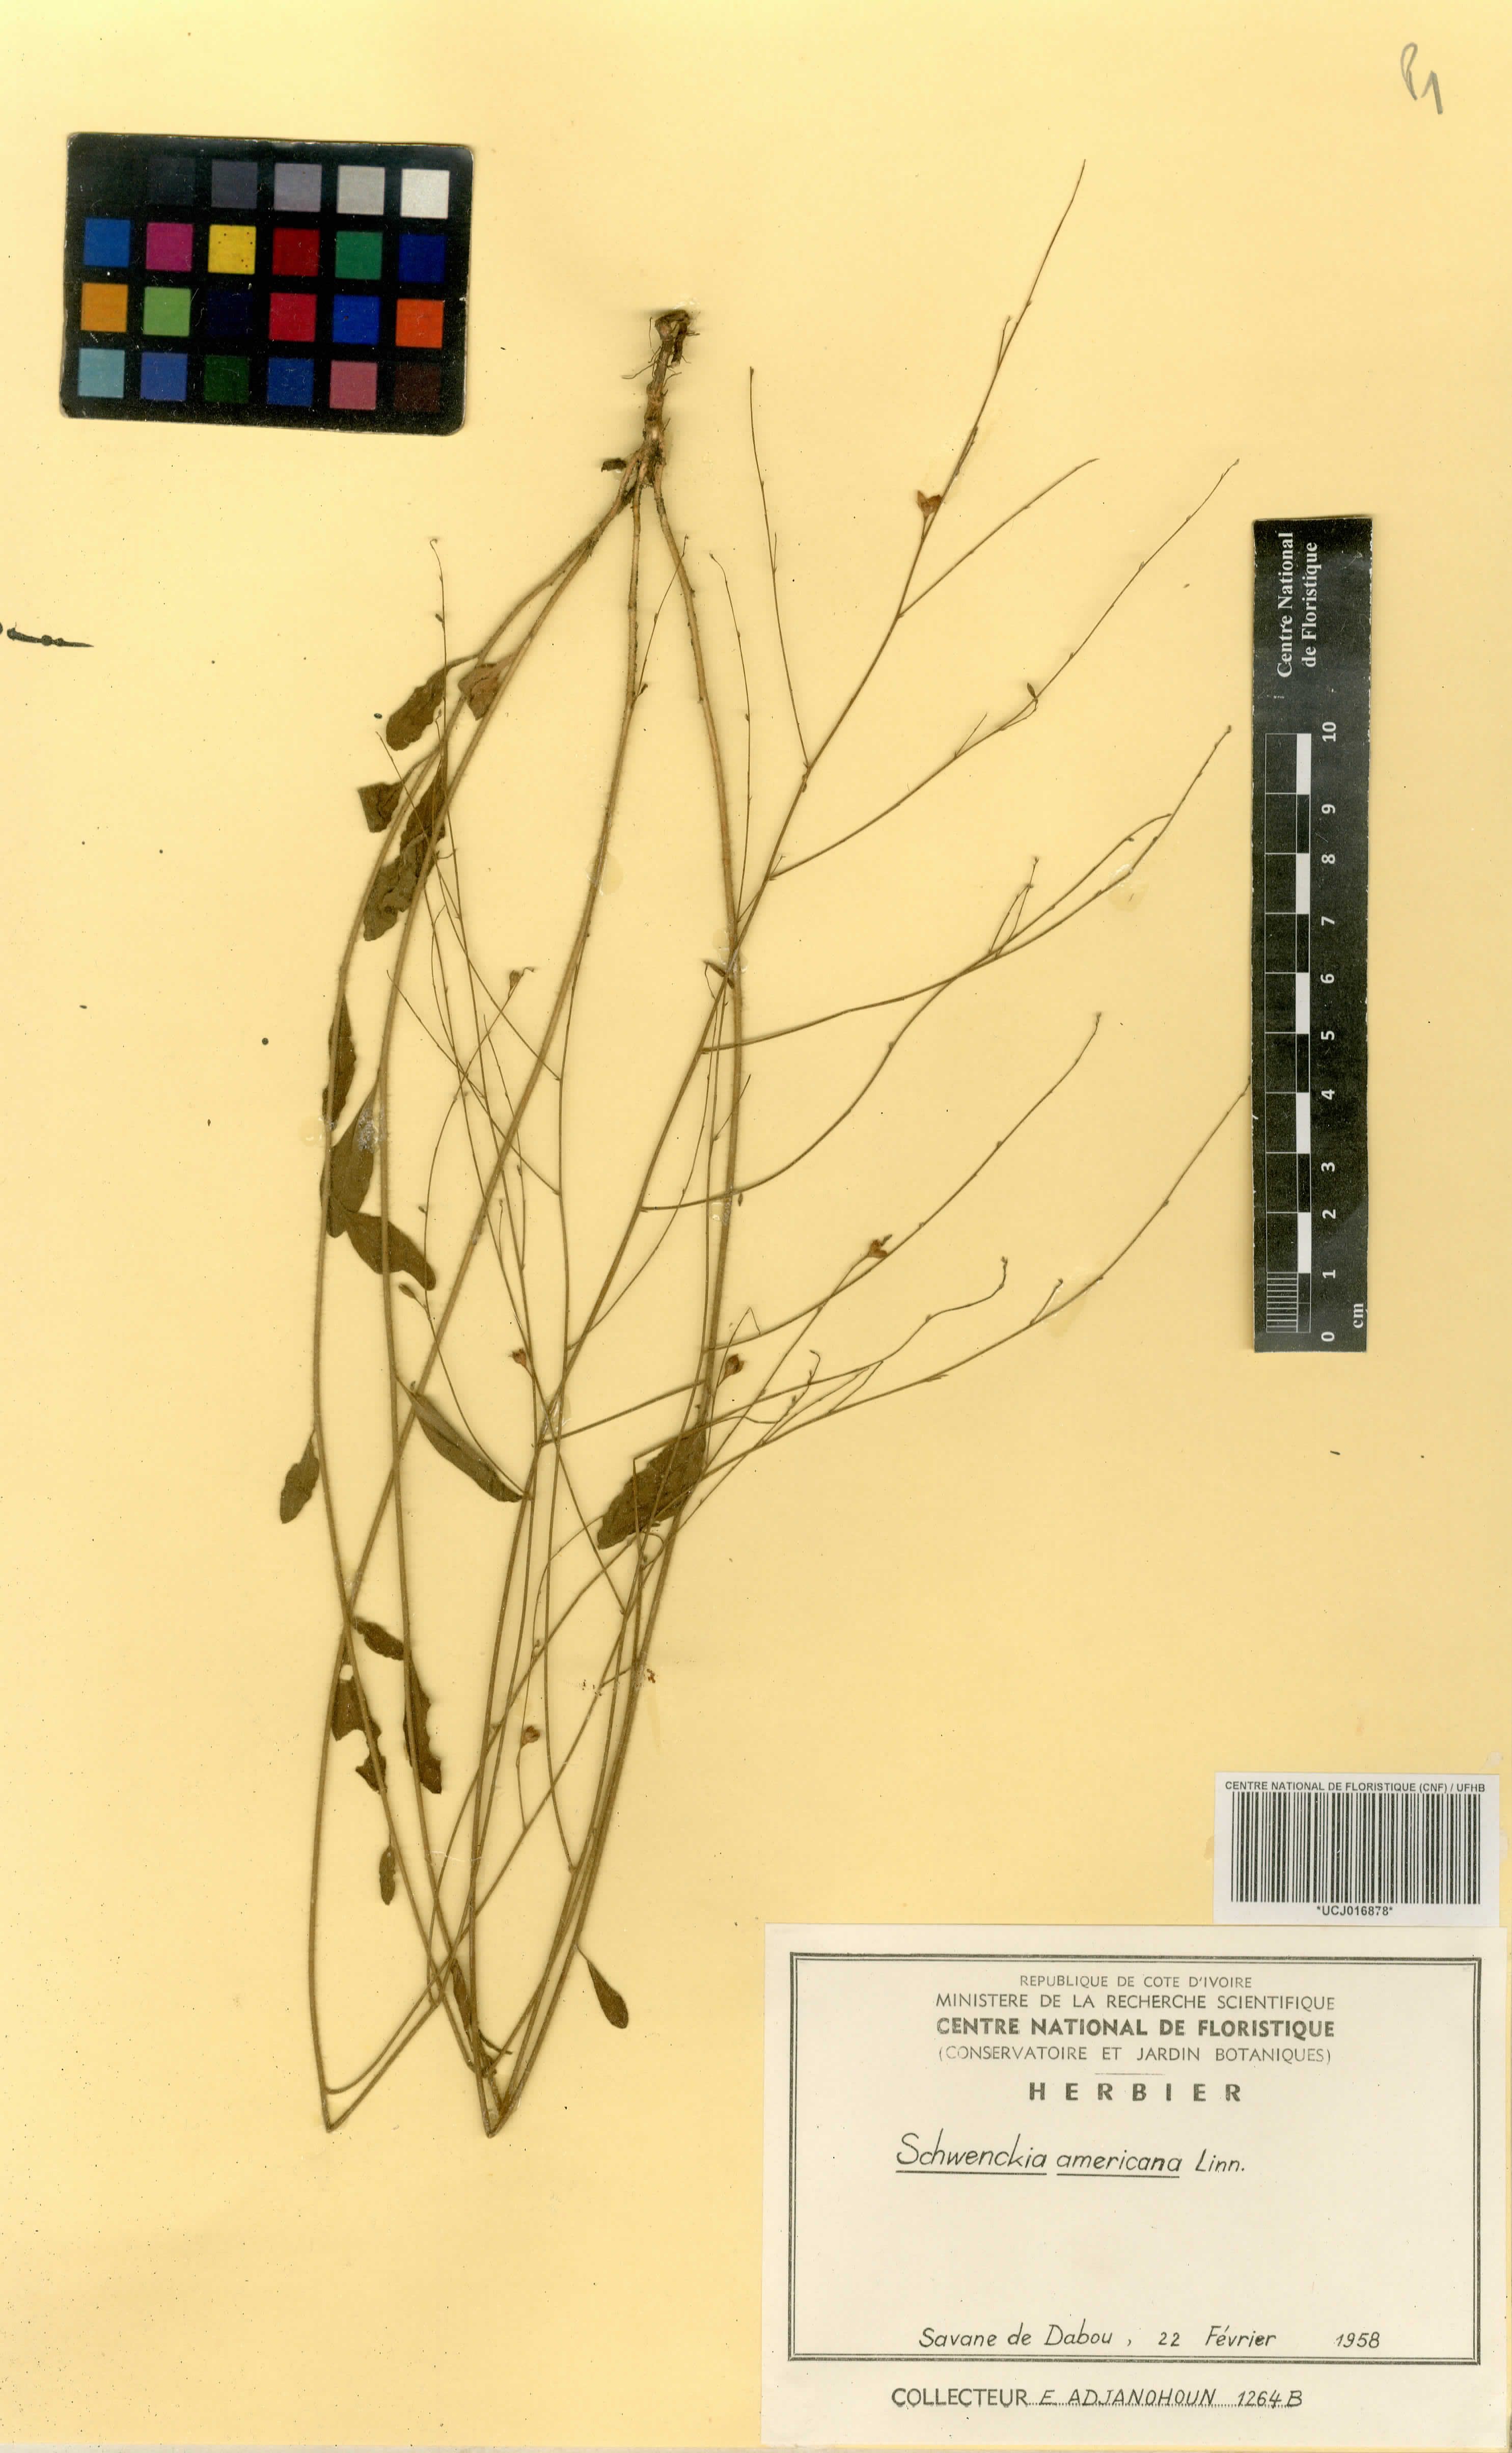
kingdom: Plantae
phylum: Tracheophyta
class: Magnoliopsida
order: Solanales
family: Solanaceae
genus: Schwenckia
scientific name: Schwenckia americana
